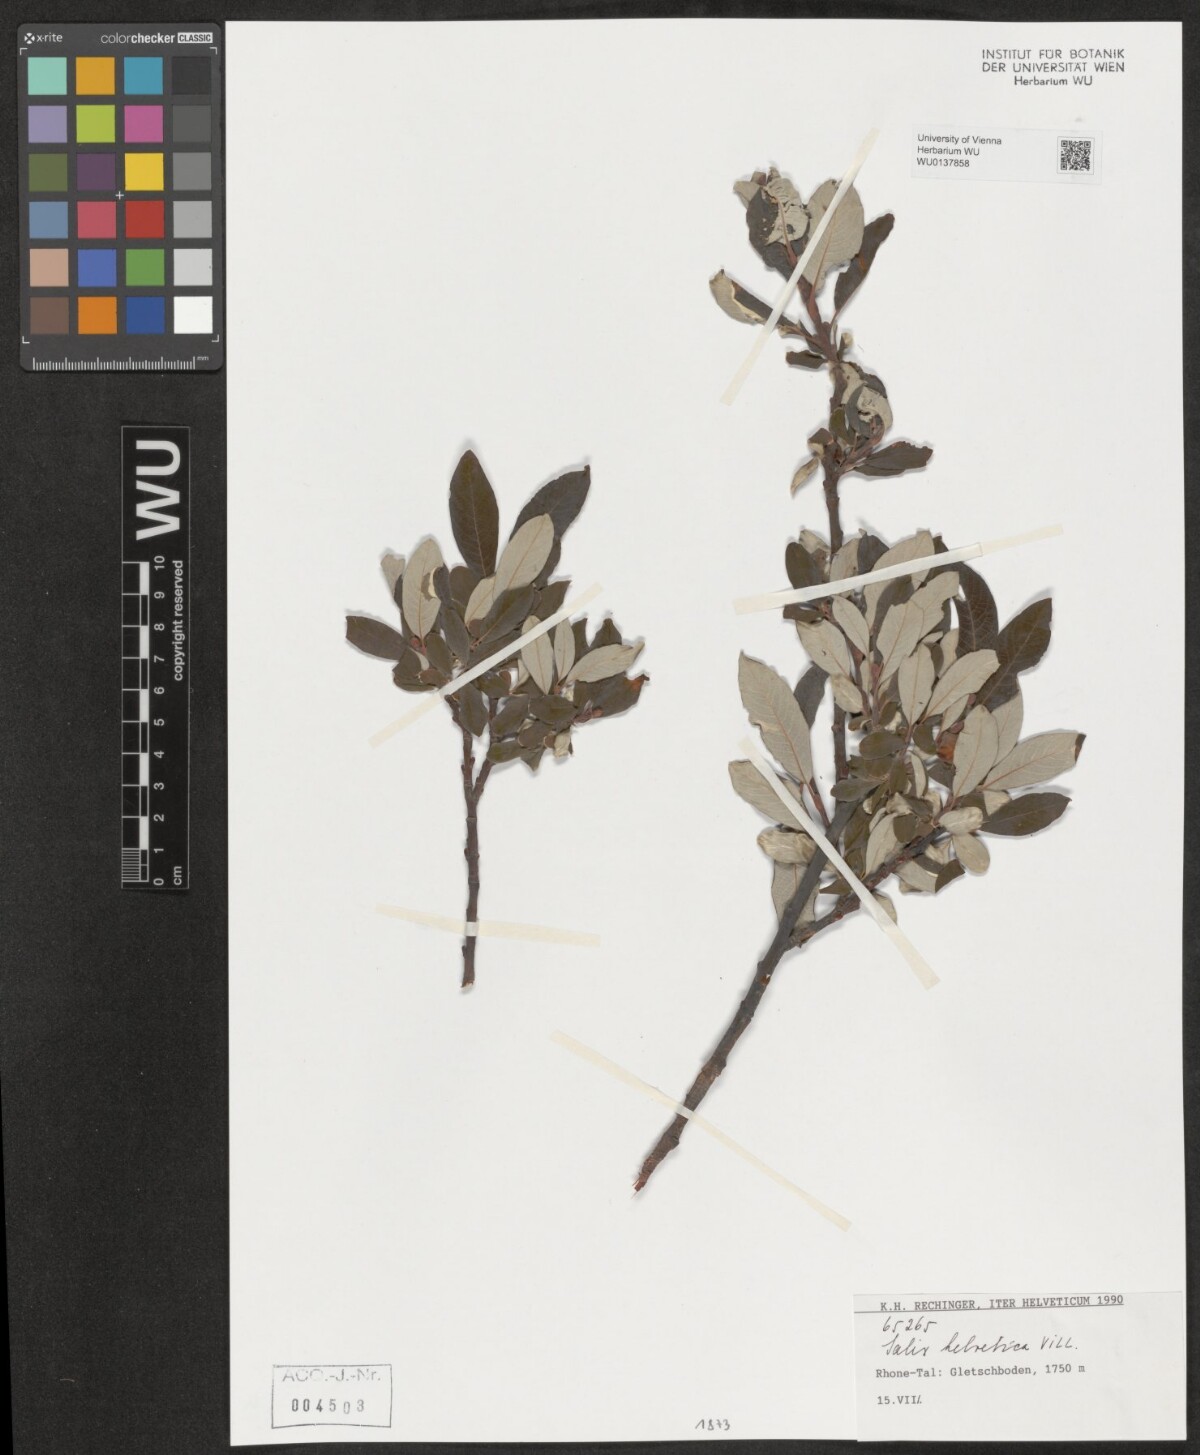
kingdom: Plantae
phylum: Tracheophyta
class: Magnoliopsida
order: Malpighiales
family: Salicaceae
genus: Salix
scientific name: Salix helvetica
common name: Swiss willow
